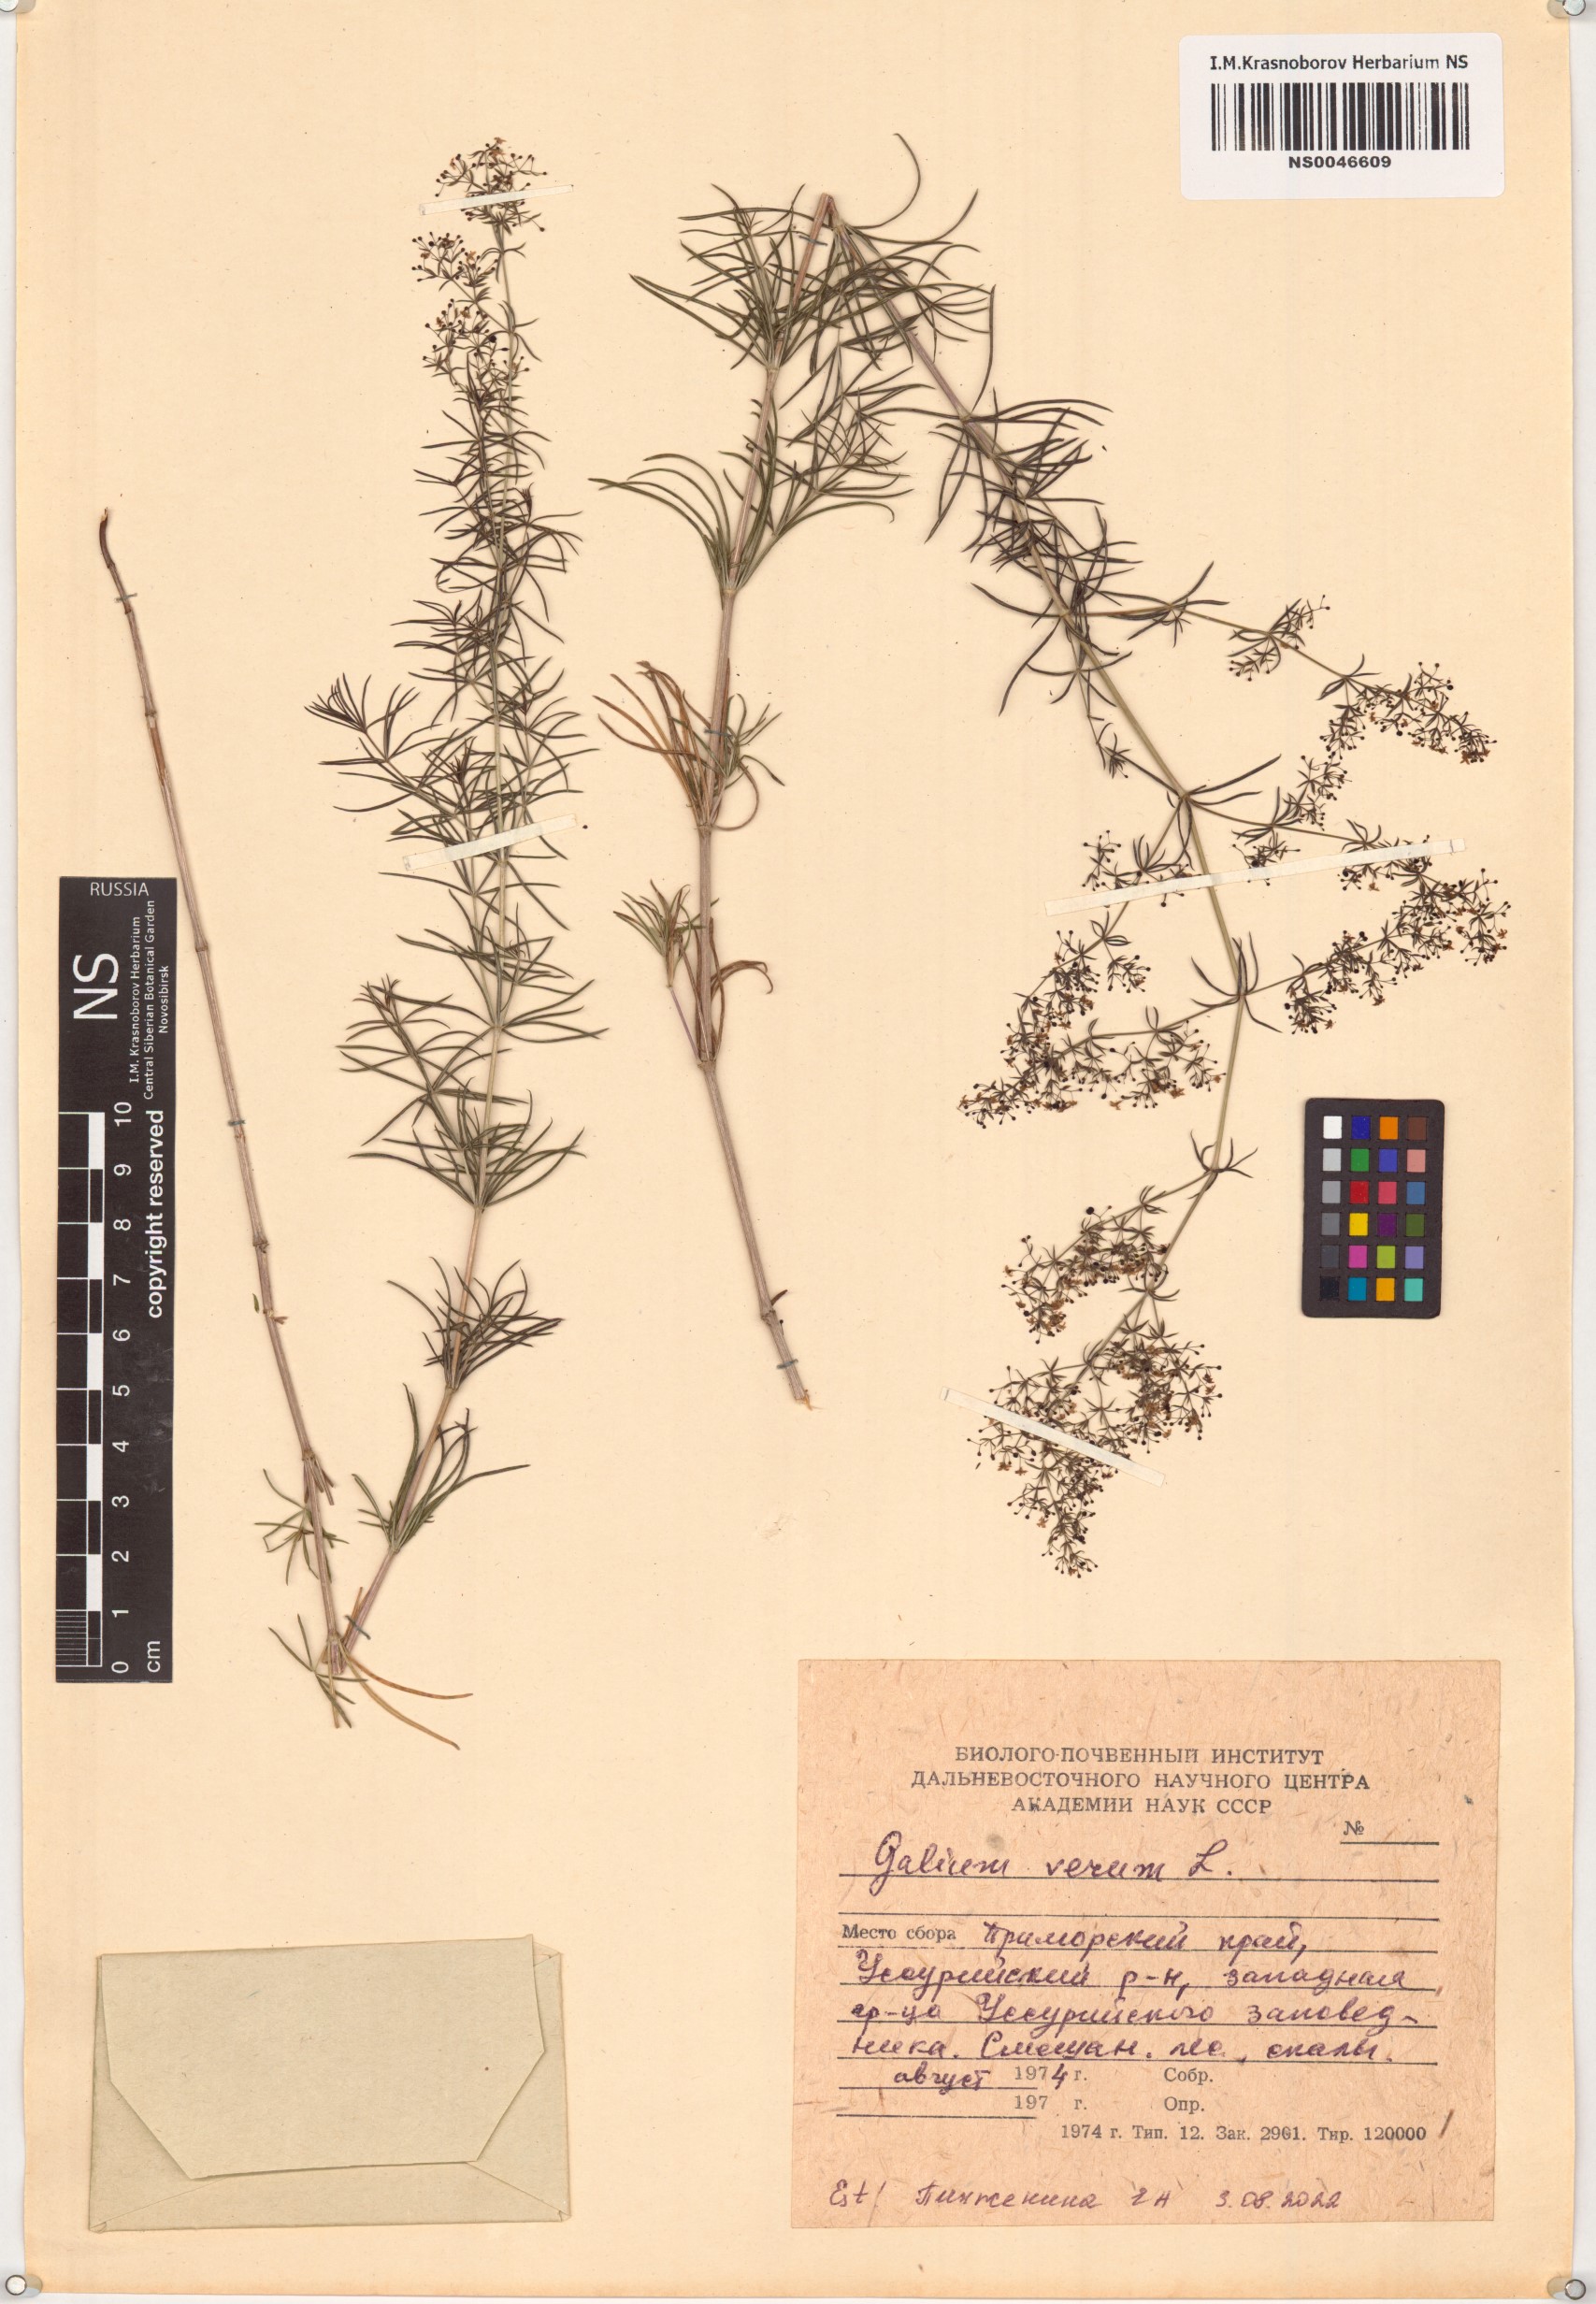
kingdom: Plantae
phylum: Tracheophyta
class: Magnoliopsida
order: Gentianales
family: Rubiaceae
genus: Galium
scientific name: Galium verum
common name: Lady's bedstraw
